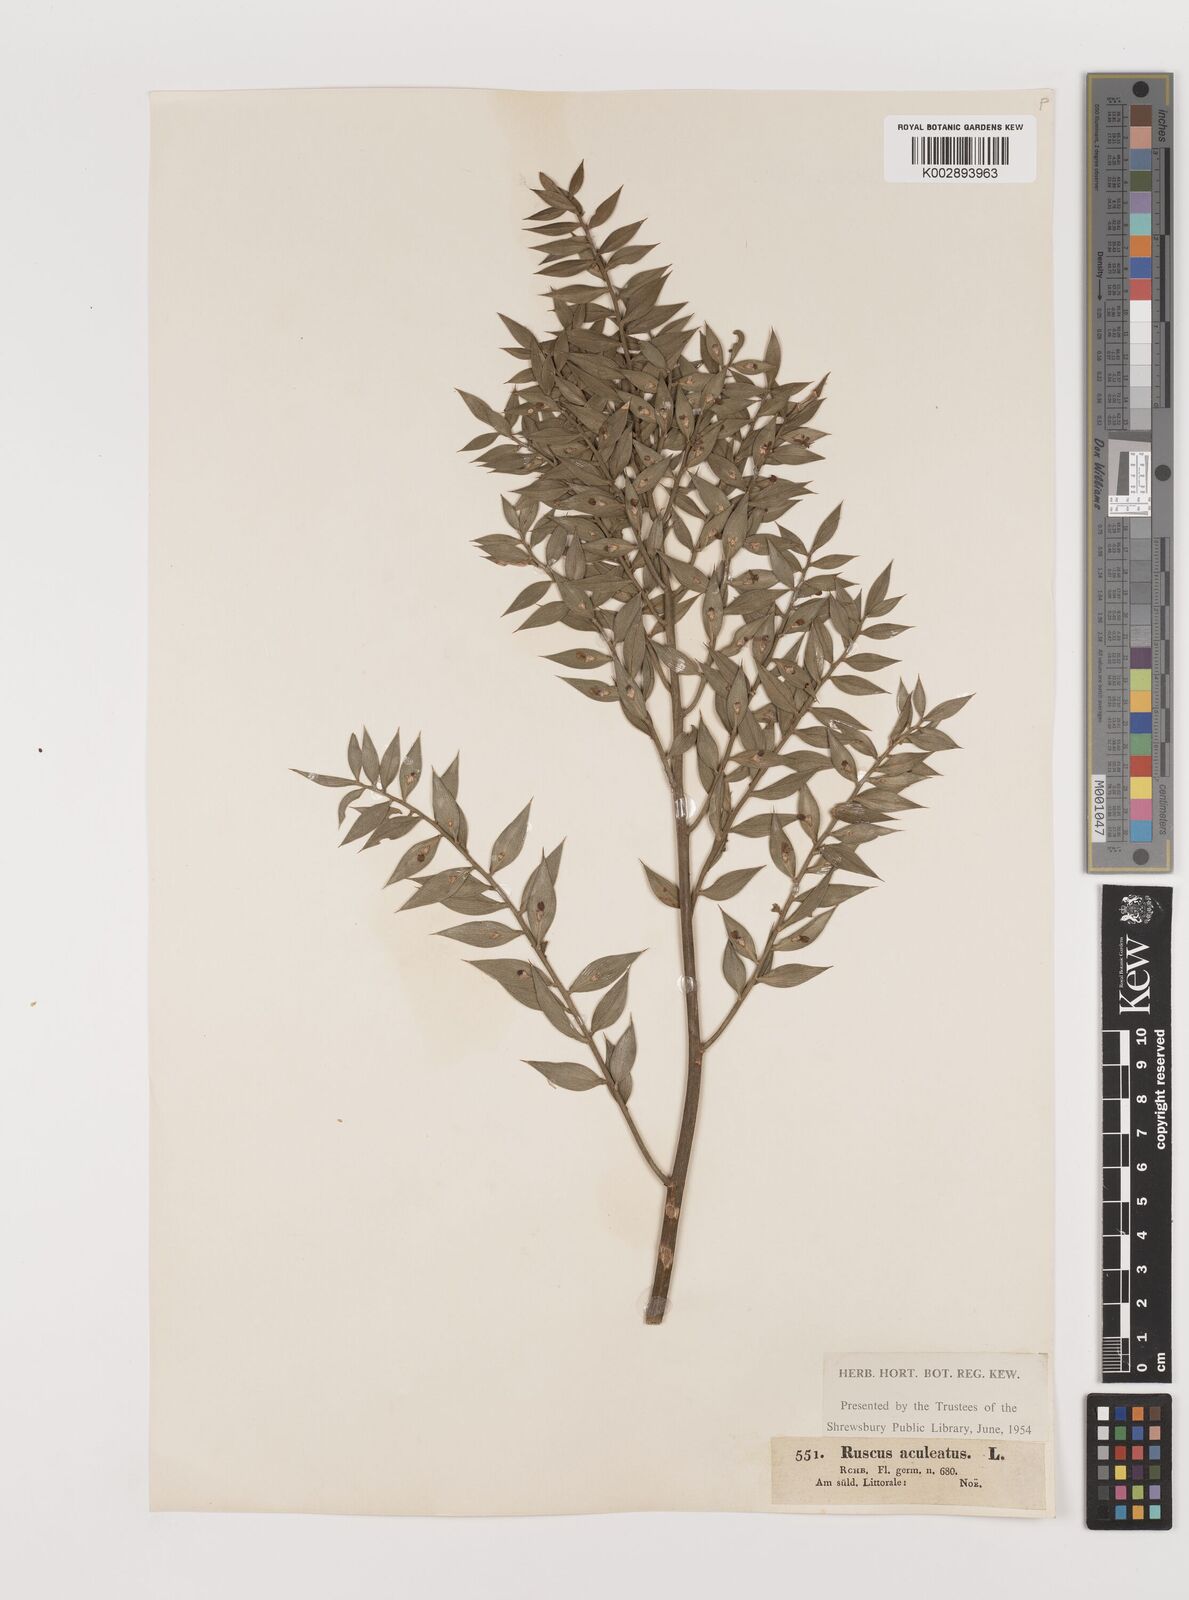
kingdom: Plantae
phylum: Tracheophyta
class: Liliopsida
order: Asparagales
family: Asparagaceae
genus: Ruscus
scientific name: Ruscus
